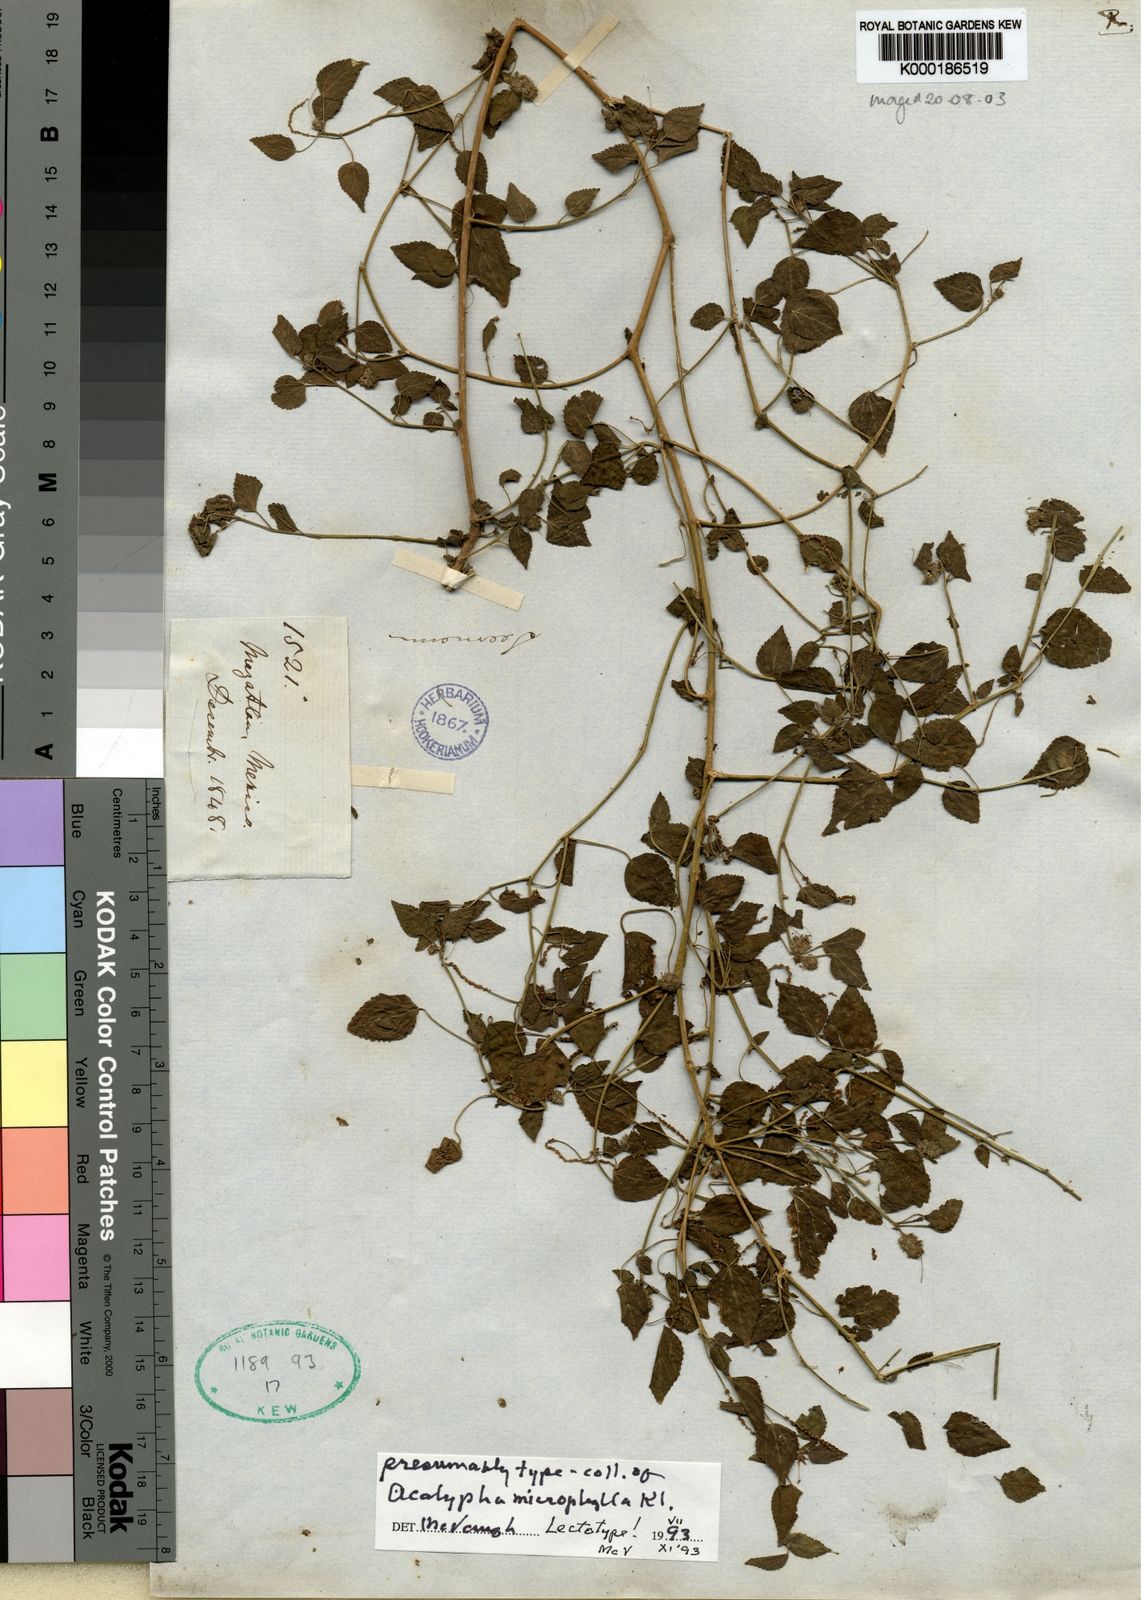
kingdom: Plantae
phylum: Tracheophyta
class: Magnoliopsida
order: Malpighiales
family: Euphorbiaceae
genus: Acalypha
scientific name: Acalypha microphylla
